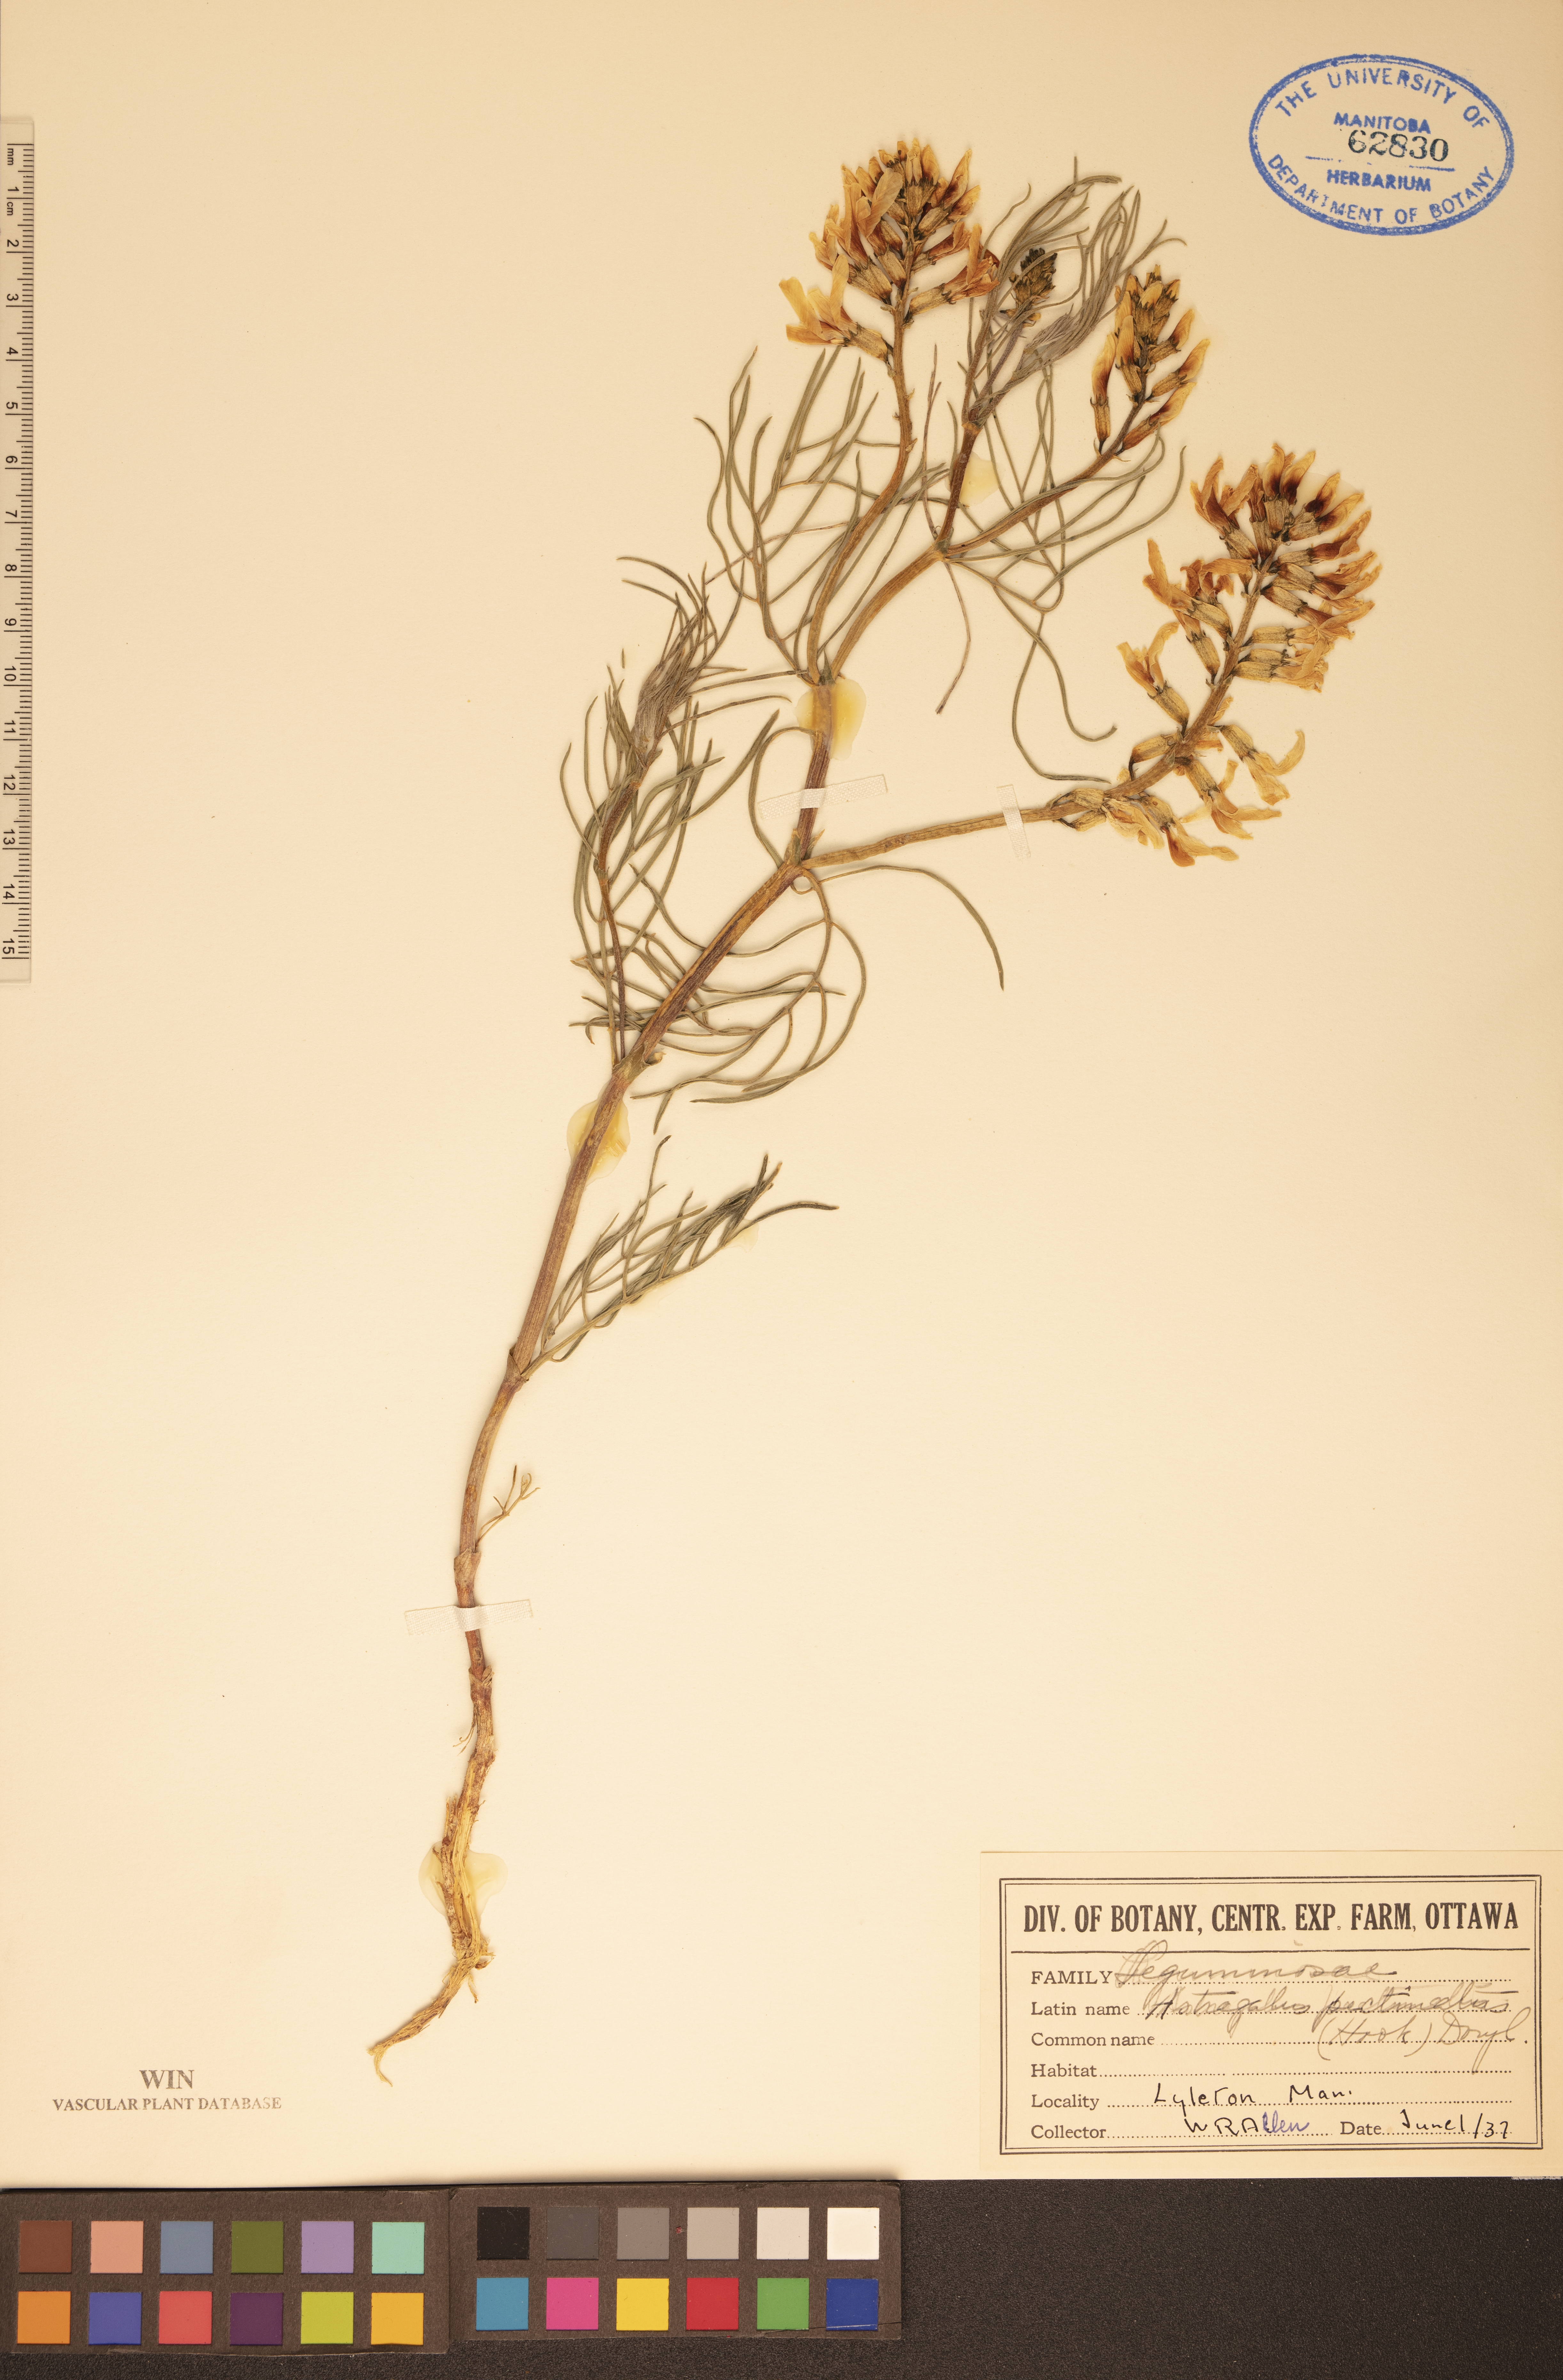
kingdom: Plantae
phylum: Tracheophyta
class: Magnoliopsida
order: Fabales
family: Fabaceae
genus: Astragalus
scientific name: Astragalus pectinatus
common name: Tine-leaf milk-vetch
